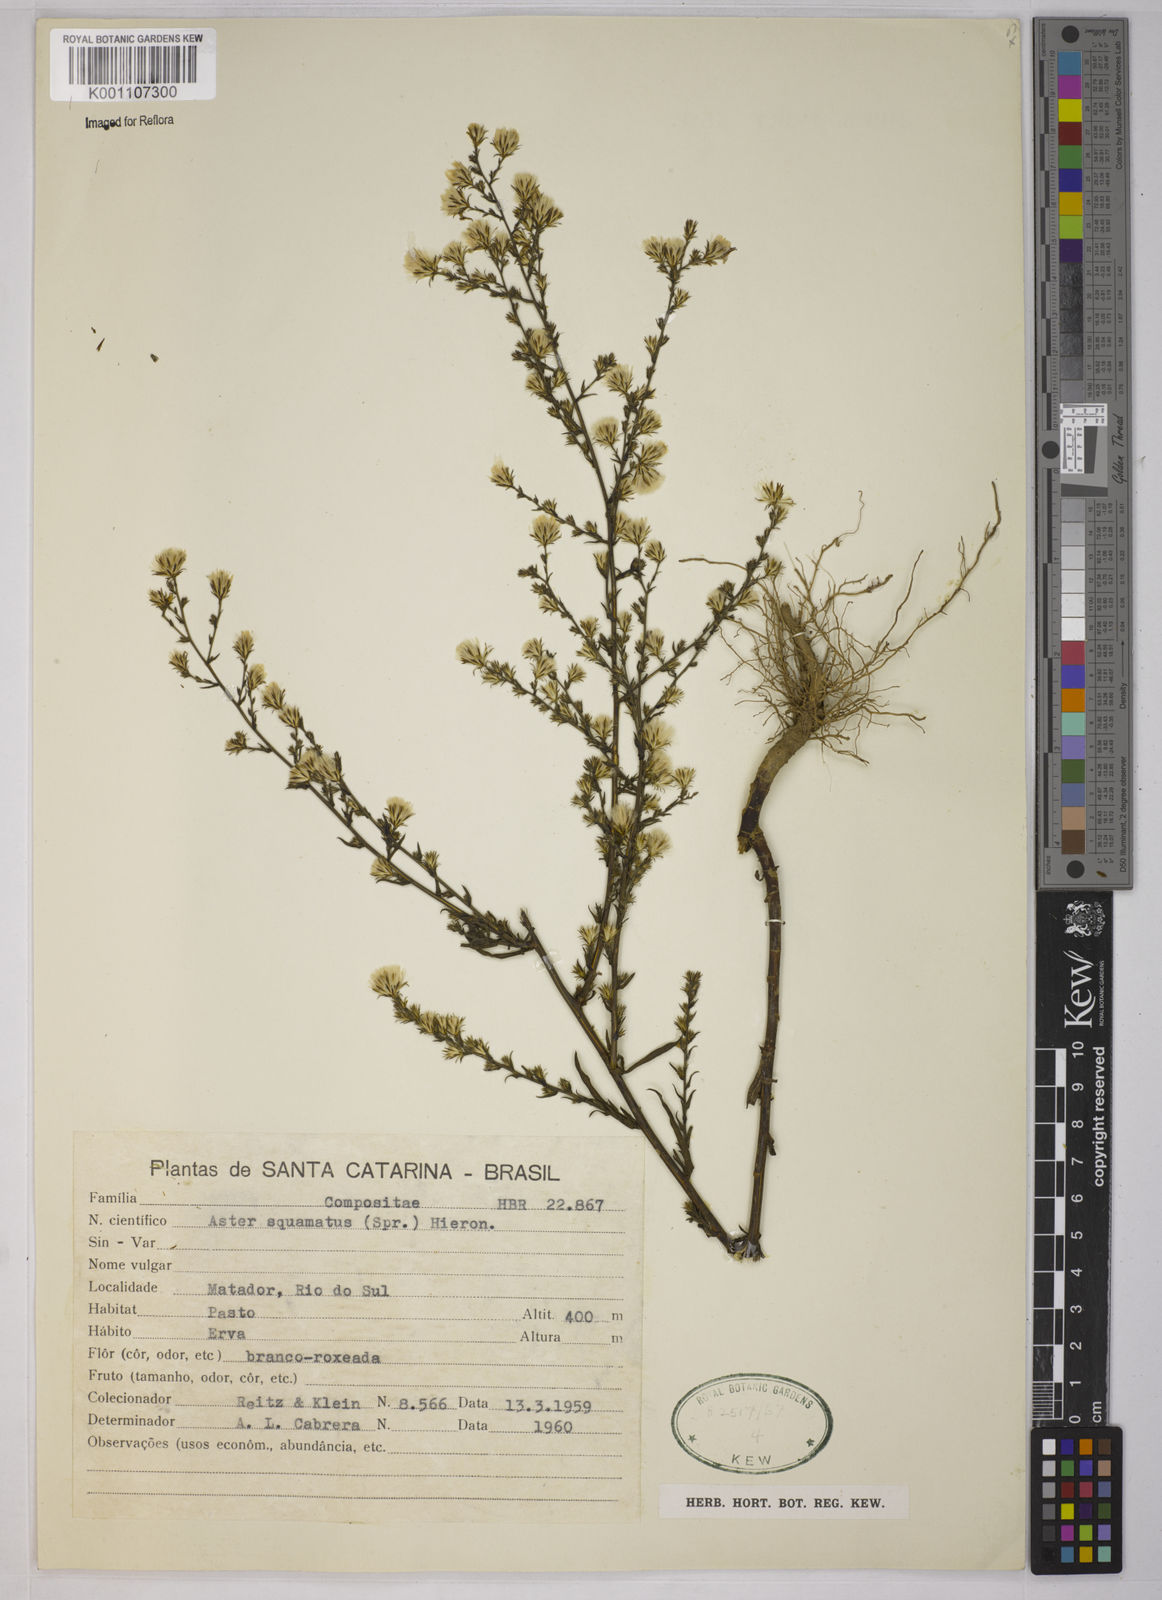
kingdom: Plantae
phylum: Tracheophyta
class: Magnoliopsida
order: Asterales
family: Asteraceae
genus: Symphyotrichum
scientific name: Symphyotrichum
